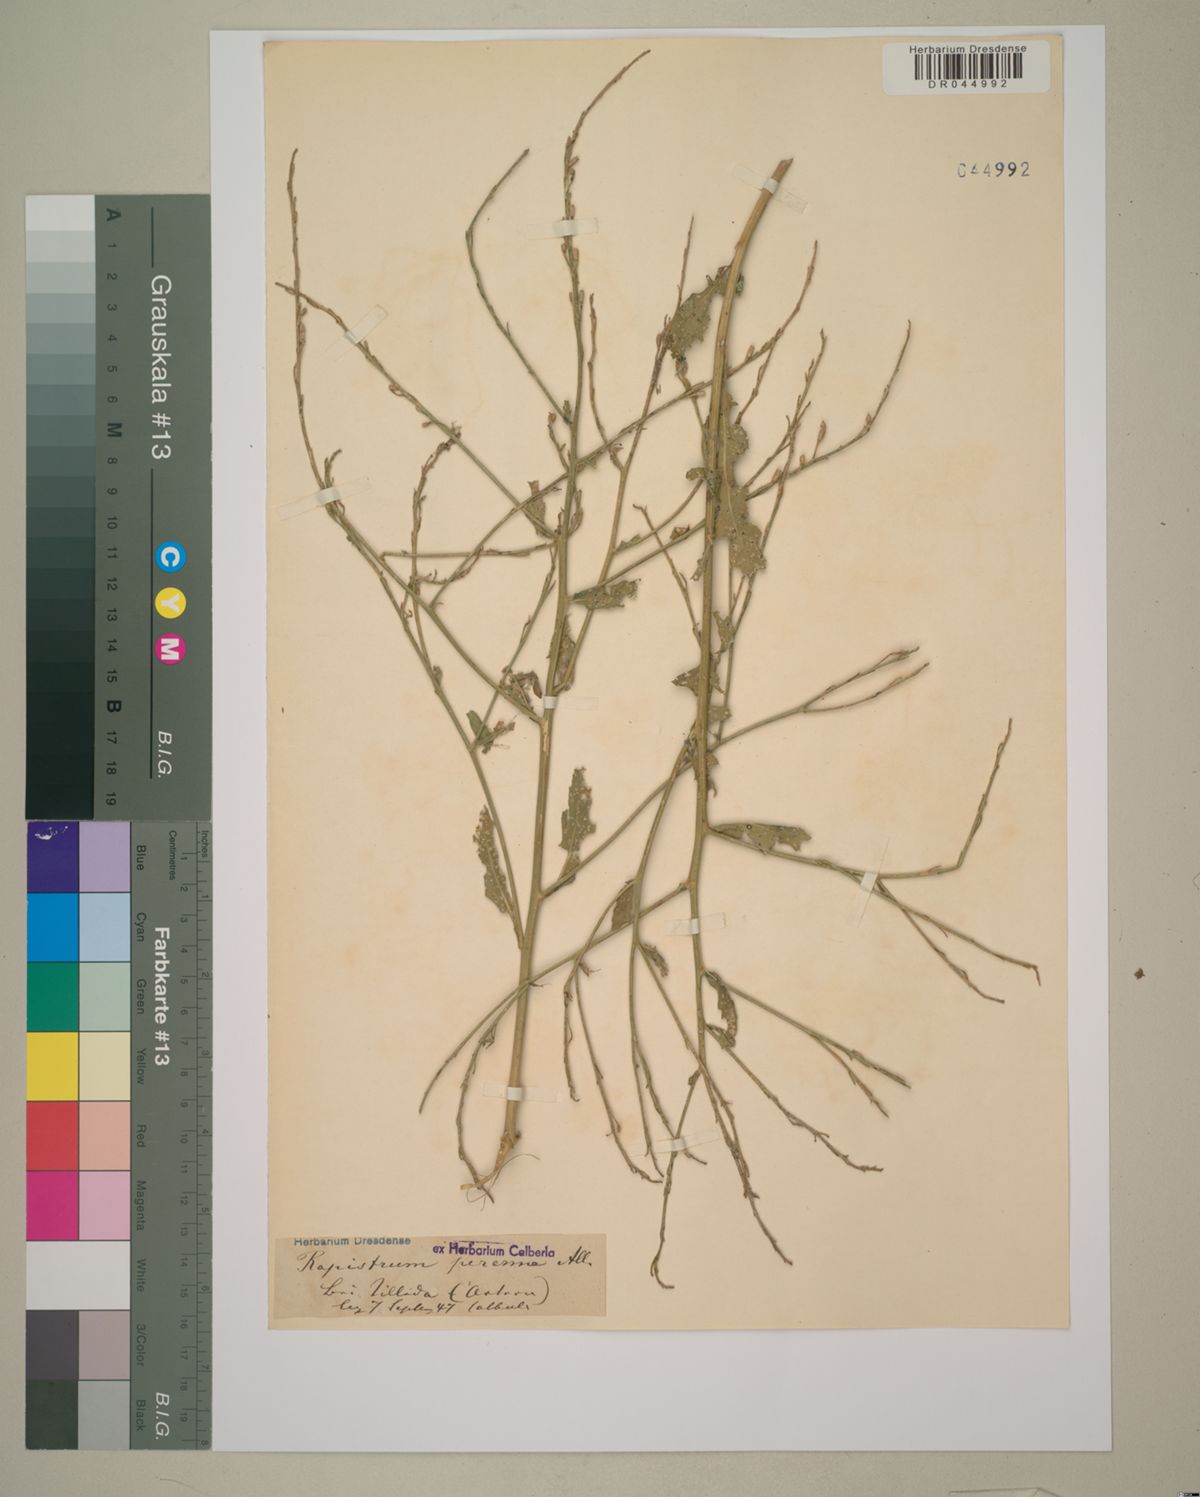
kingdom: Plantae
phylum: Tracheophyta
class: Magnoliopsida
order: Brassicales
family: Brassicaceae
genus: Rapistrum
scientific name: Rapistrum perenne
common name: Steppe cabbage
